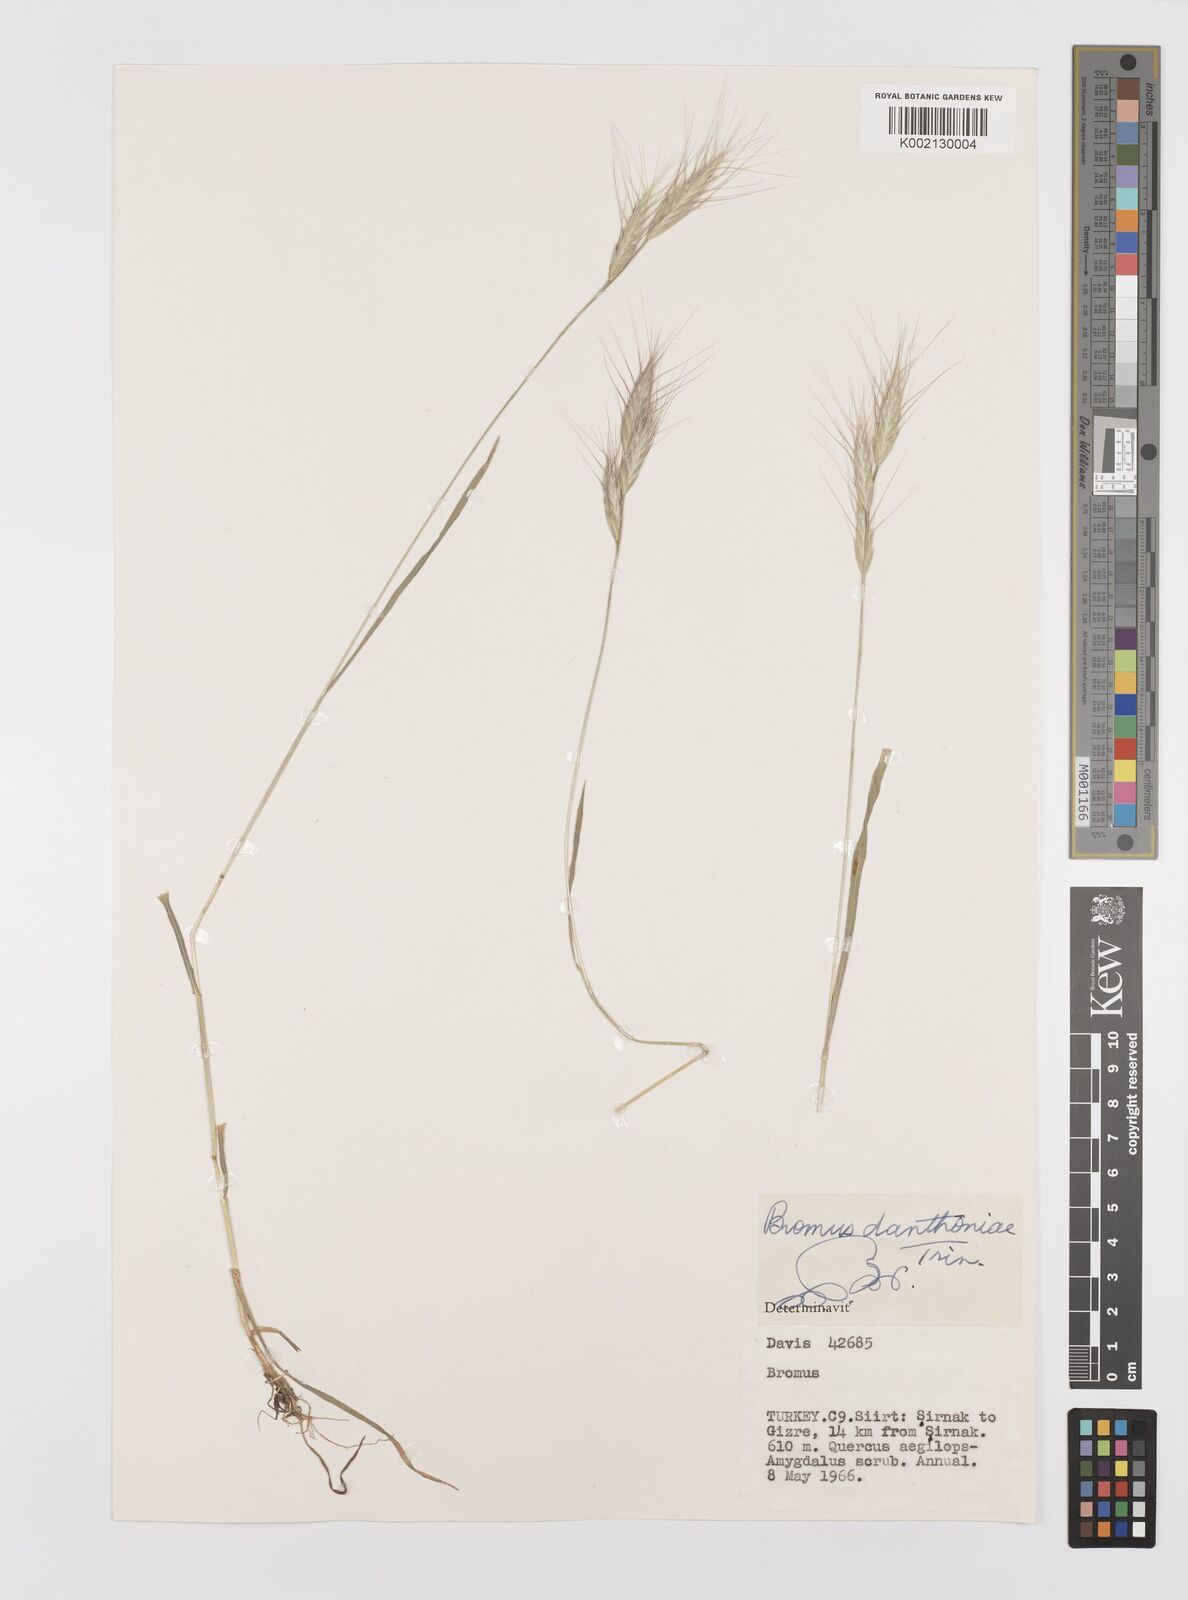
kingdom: Plantae
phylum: Tracheophyta
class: Liliopsida
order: Poales
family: Poaceae
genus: Bromus
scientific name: Bromus danthoniae
